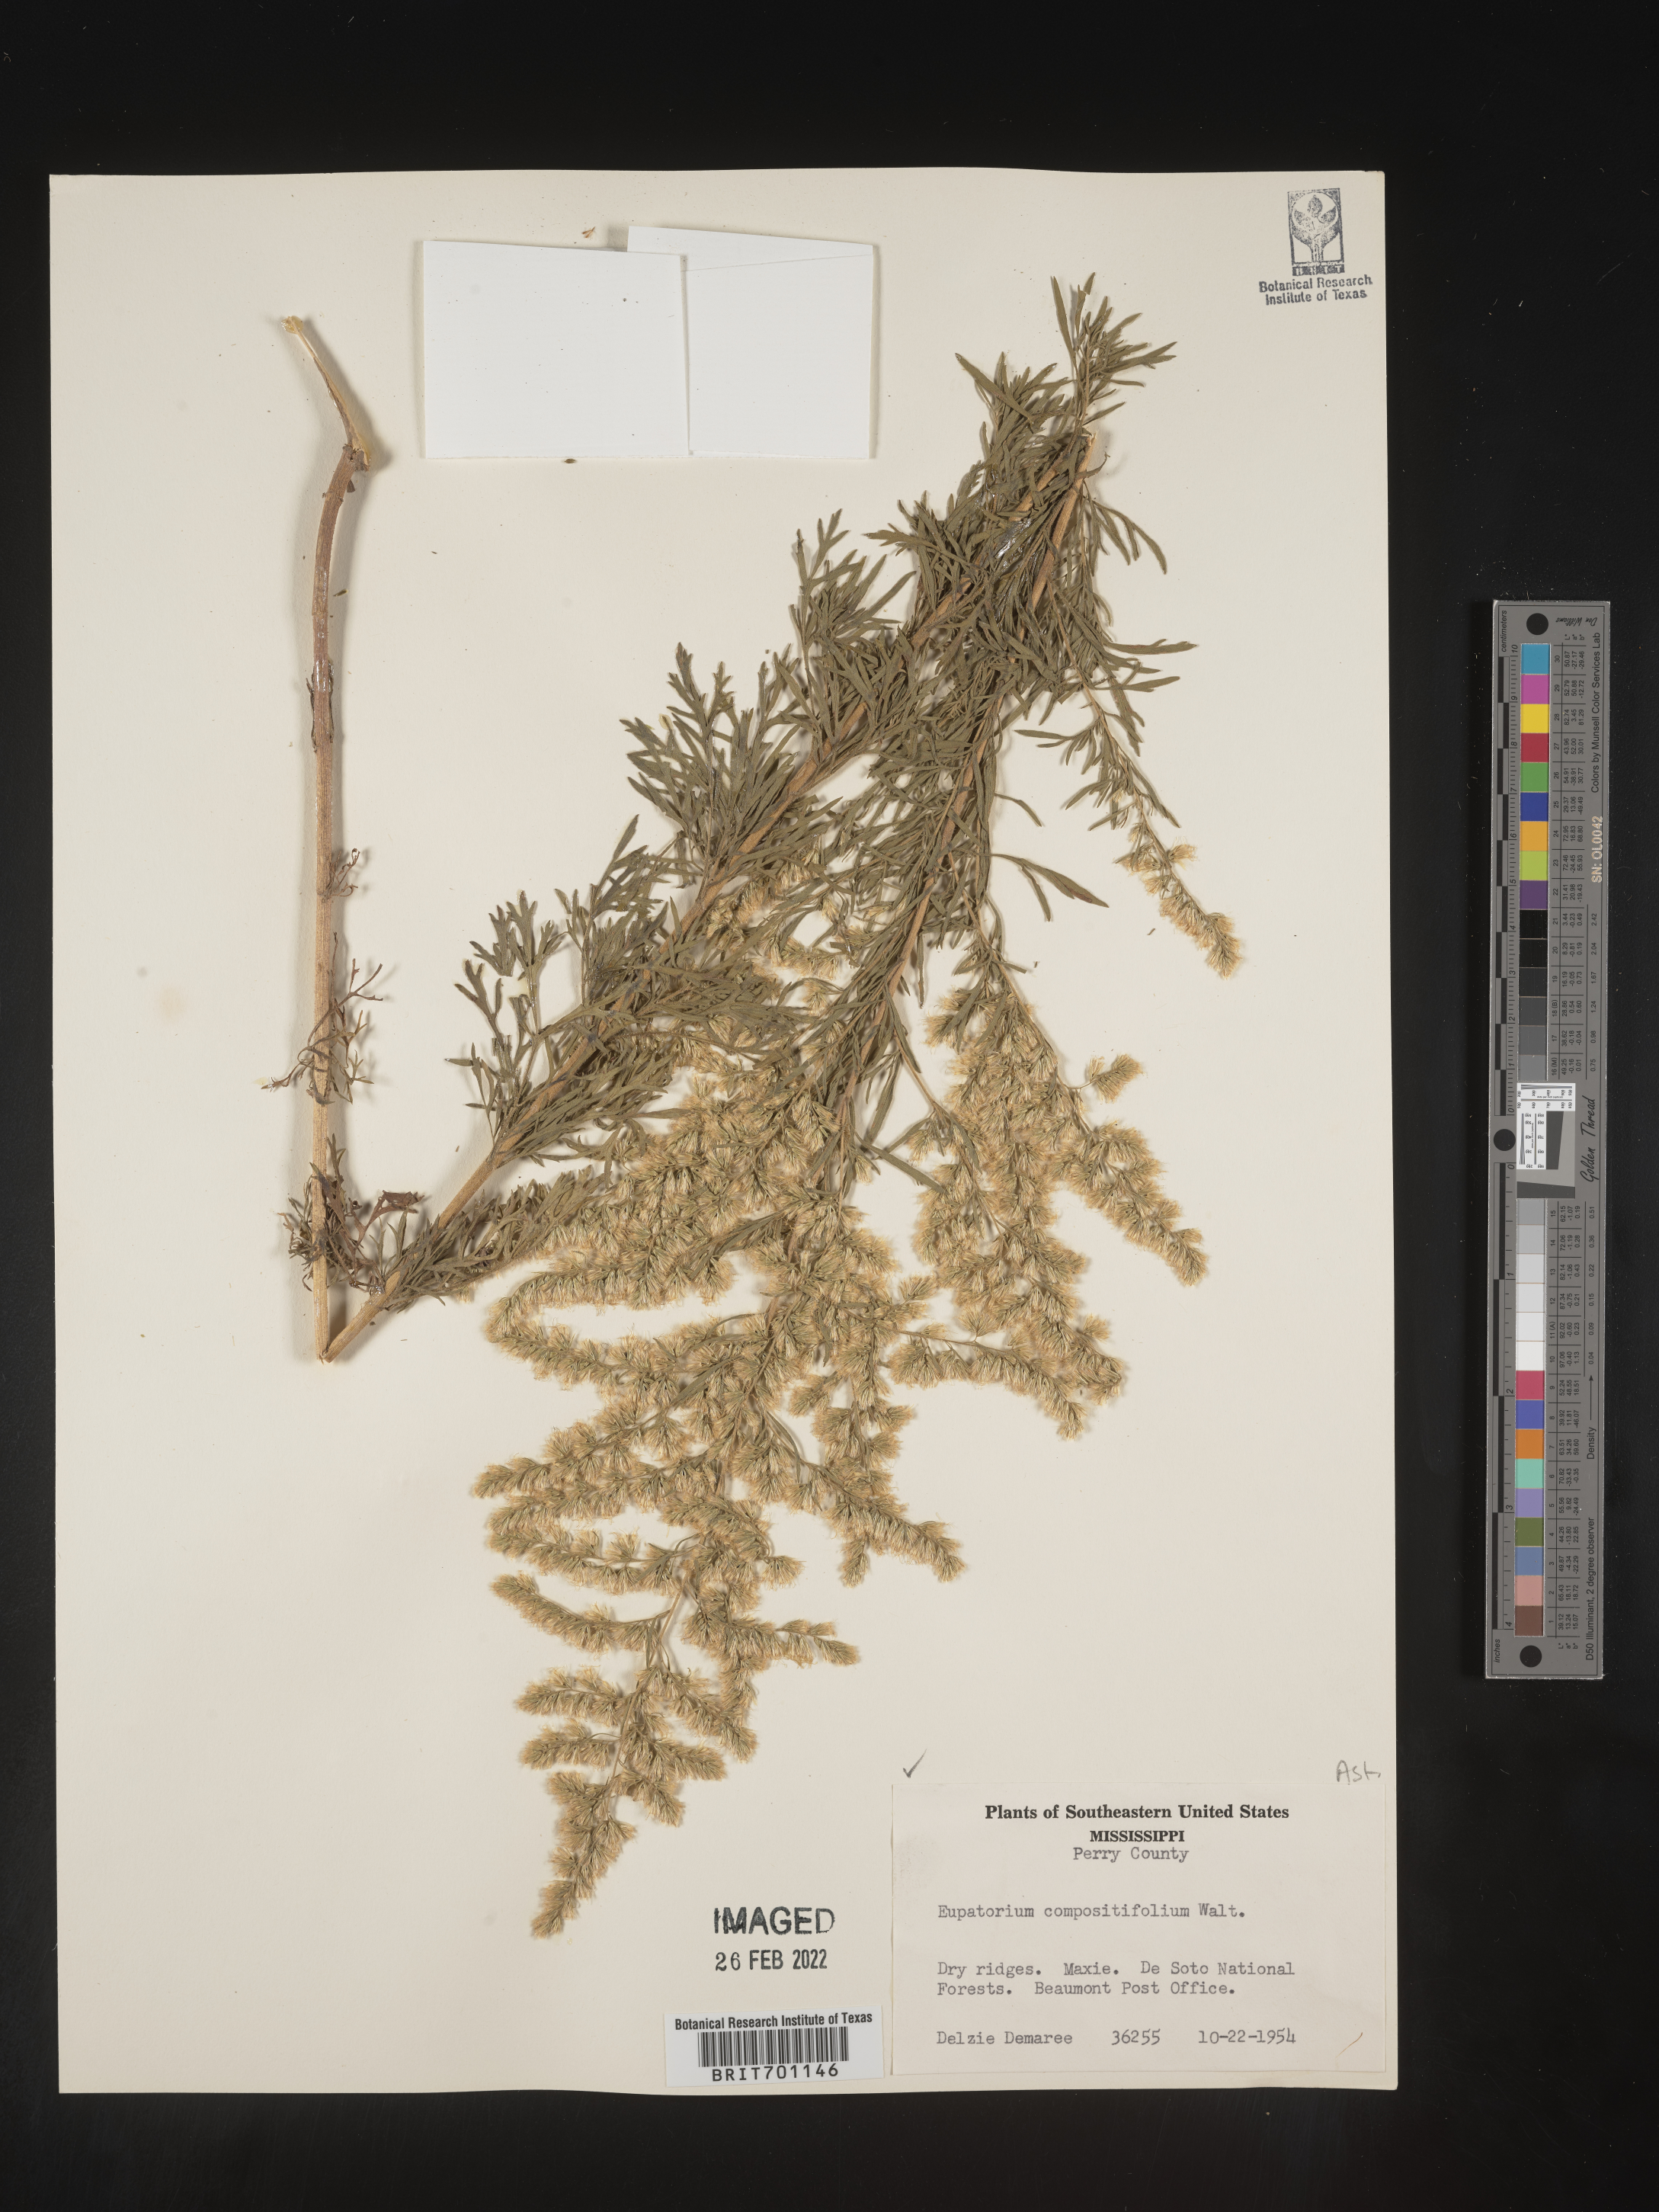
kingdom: Plantae
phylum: Tracheophyta
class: Magnoliopsida
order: Asterales
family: Asteraceae
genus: Eupatorium
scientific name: Eupatorium compositifolium
